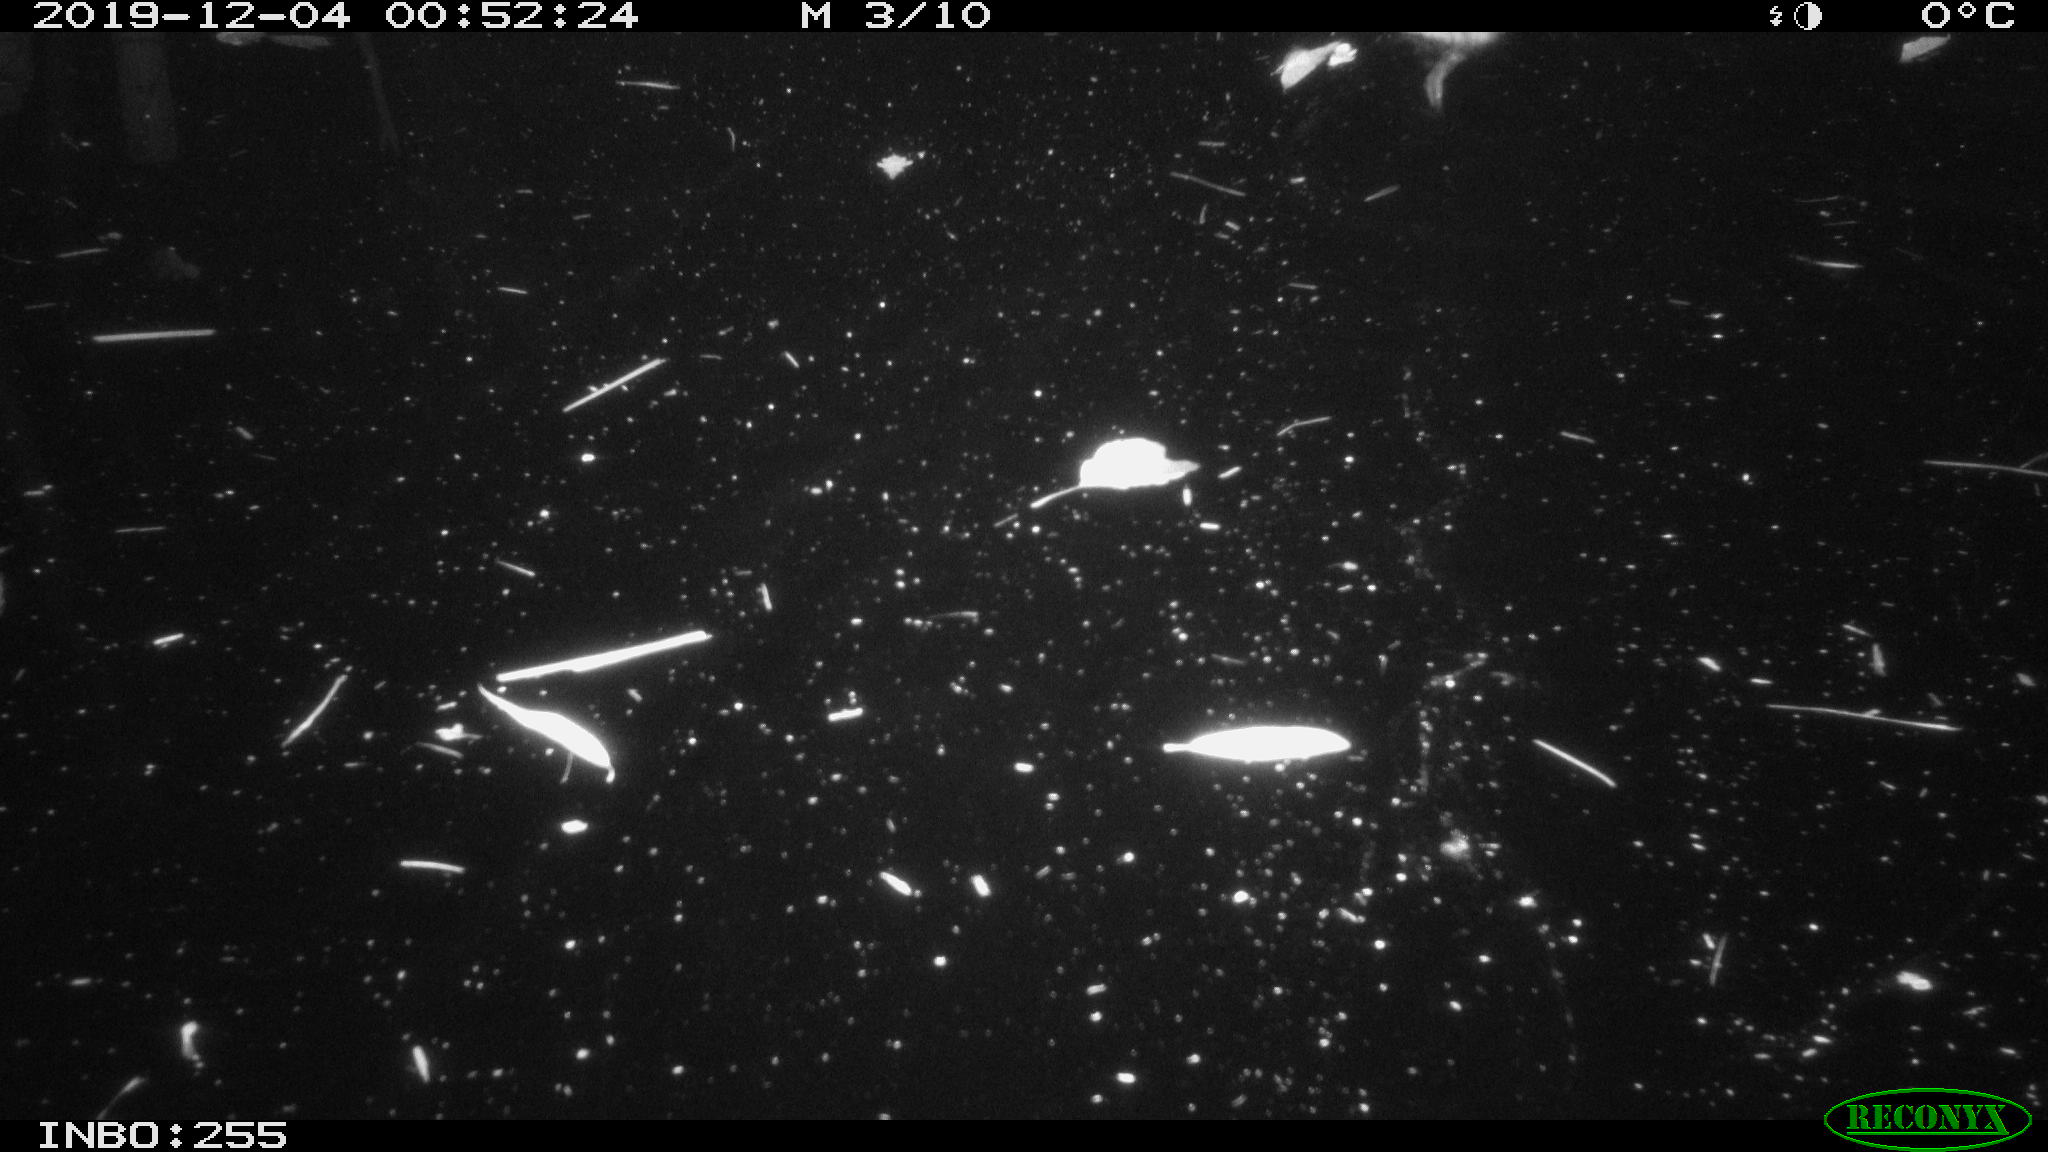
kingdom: Animalia
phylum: Chordata
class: Mammalia
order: Rodentia
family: Cricetidae
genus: Ondatra
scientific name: Ondatra zibethicus
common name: Muskrat
